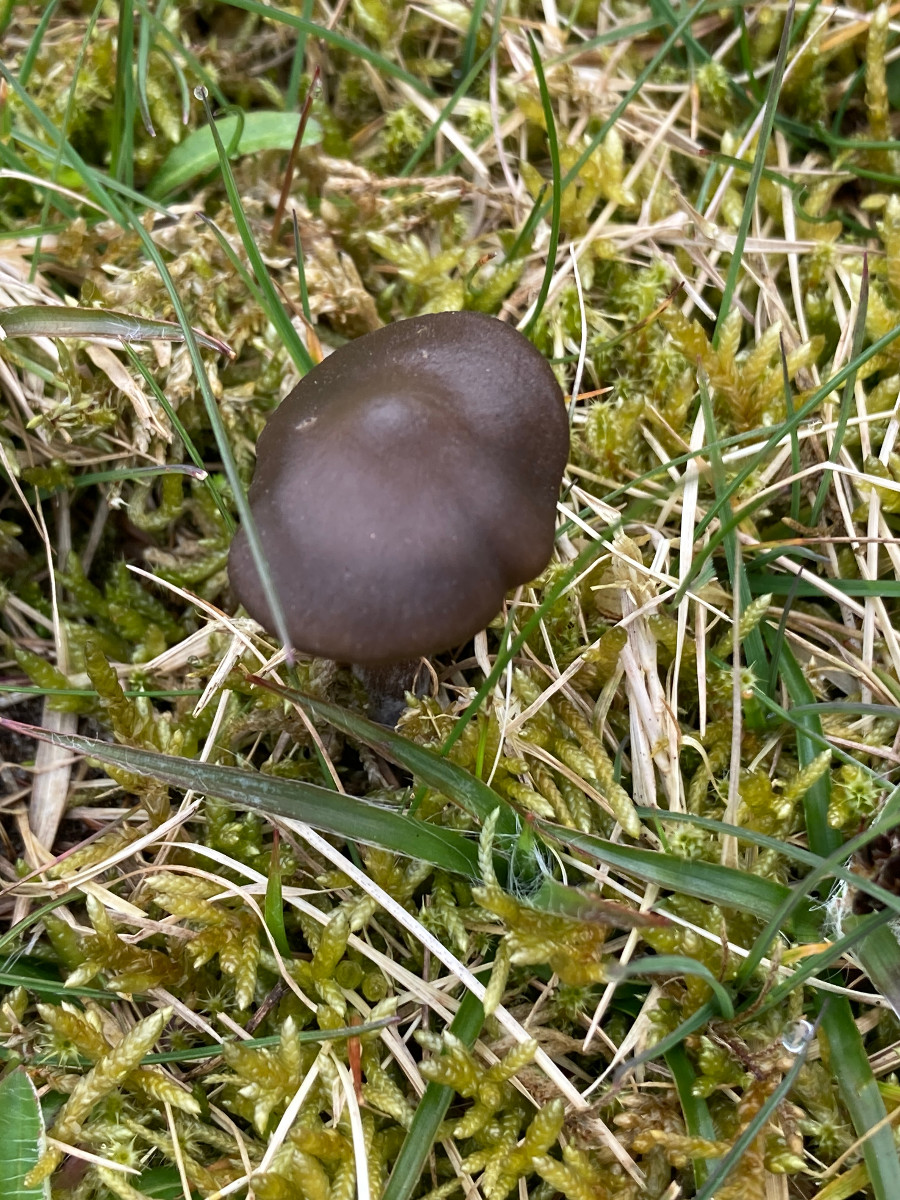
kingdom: Fungi
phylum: Basidiomycota
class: Agaricomycetes
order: Agaricales
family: Entolomataceae
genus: Entoloma
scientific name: Entoloma vernum
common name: vår-rødblad
